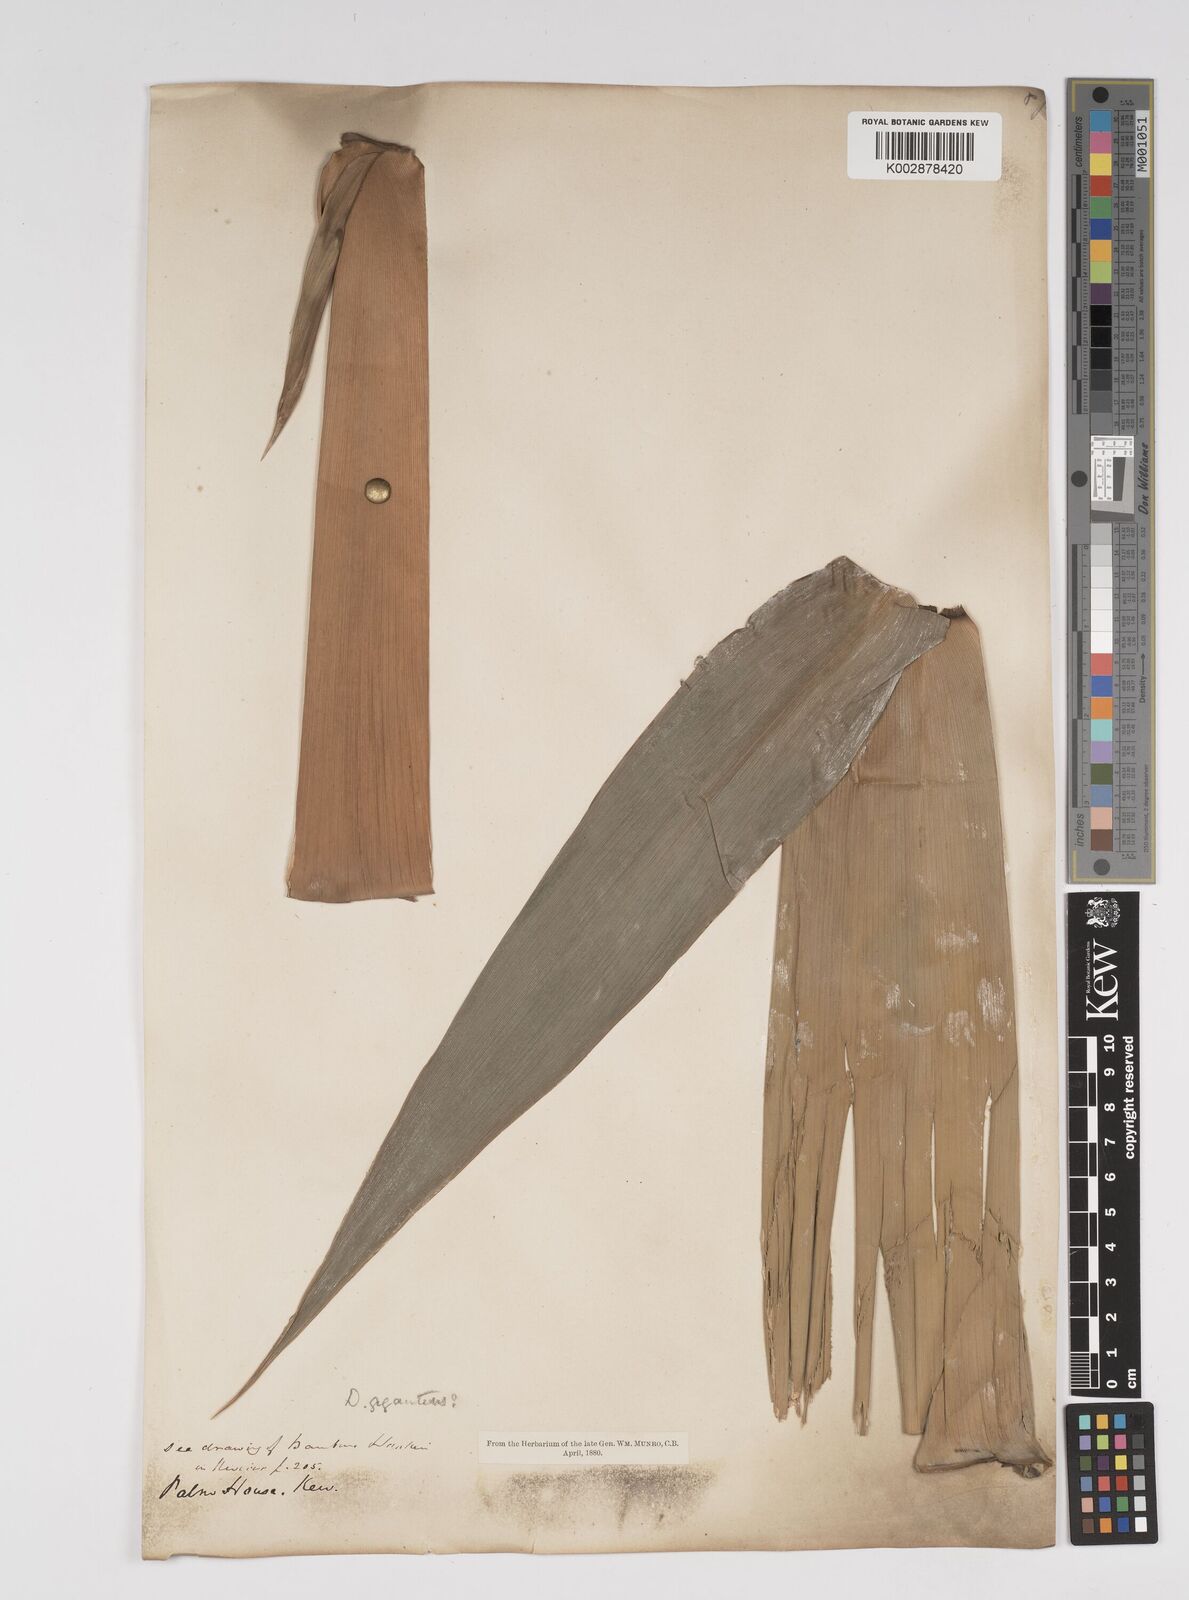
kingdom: Plantae
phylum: Tracheophyta
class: Liliopsida
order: Poales
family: Poaceae
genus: Dendrocalamus
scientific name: Dendrocalamus giganteus
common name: Giant bamboo
